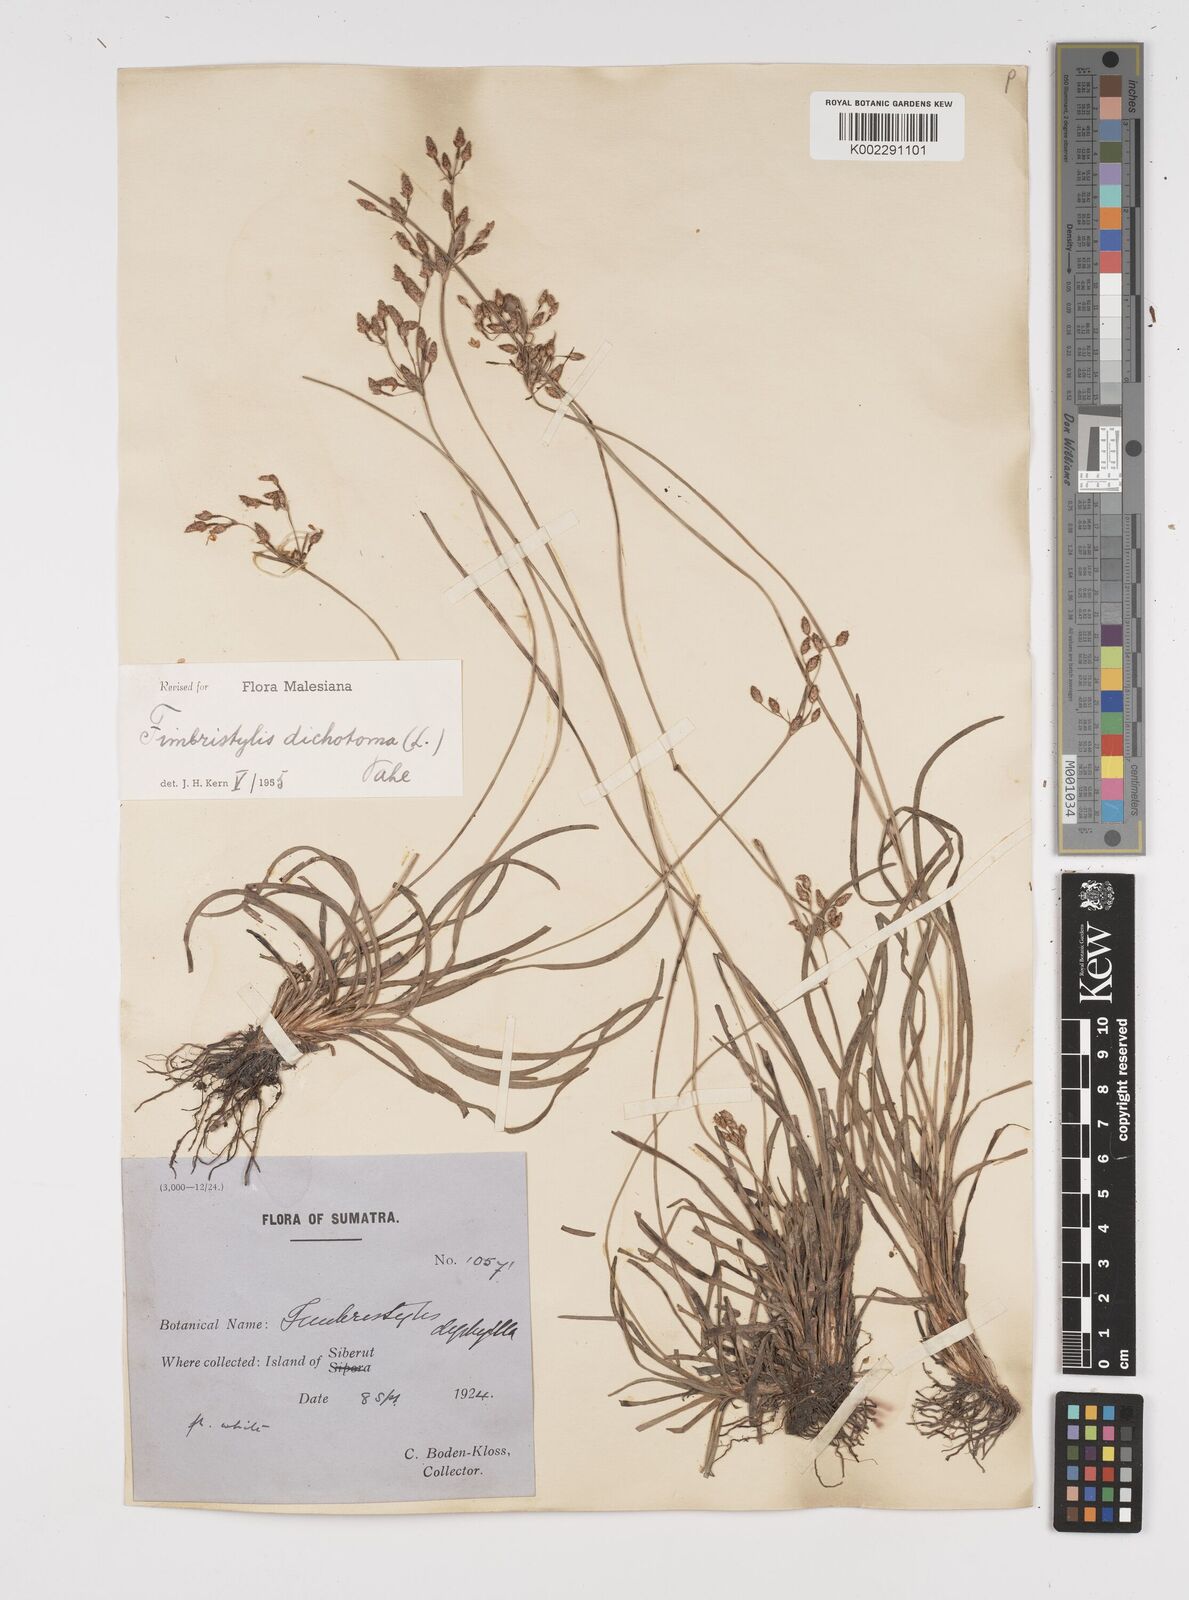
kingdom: Plantae
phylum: Tracheophyta
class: Liliopsida
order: Poales
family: Cyperaceae
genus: Fimbristylis
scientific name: Fimbristylis dichotoma
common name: Forked fimbry
